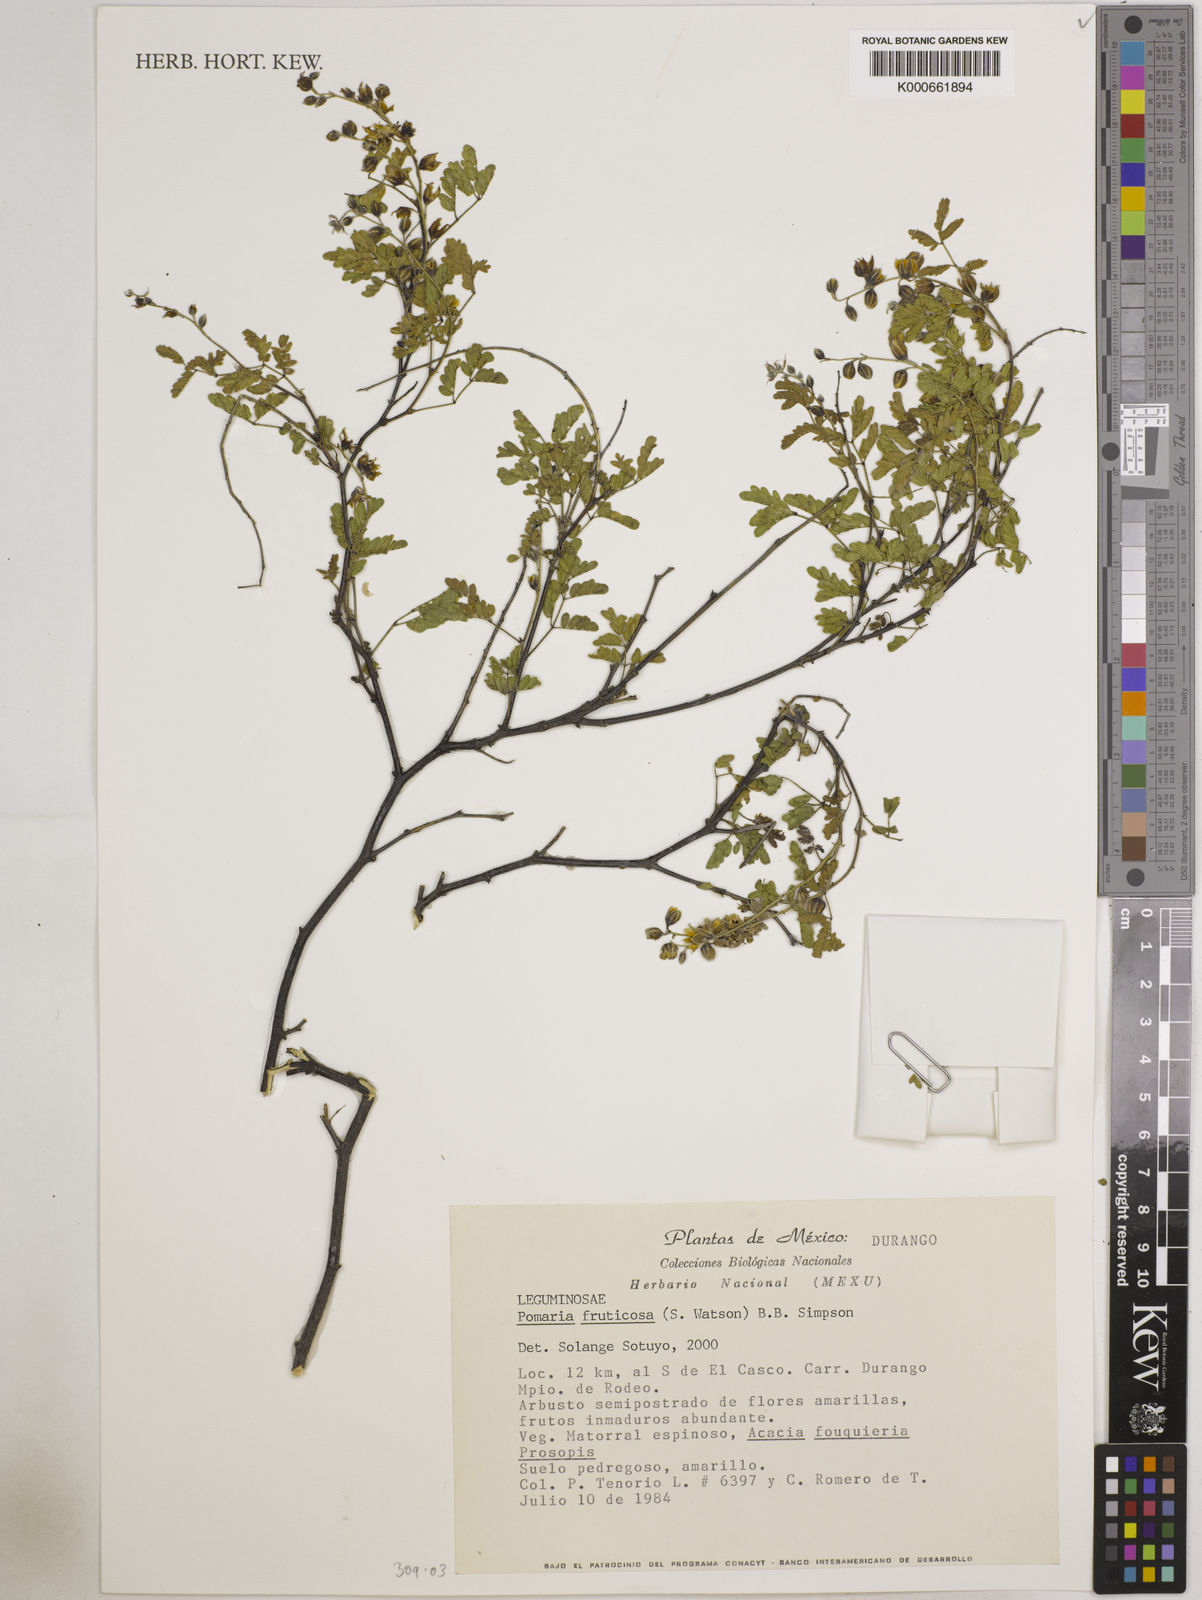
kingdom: Plantae
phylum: Tracheophyta
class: Magnoliopsida
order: Fabales
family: Fabaceae
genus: Pomaria
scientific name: Pomaria fruticosa
